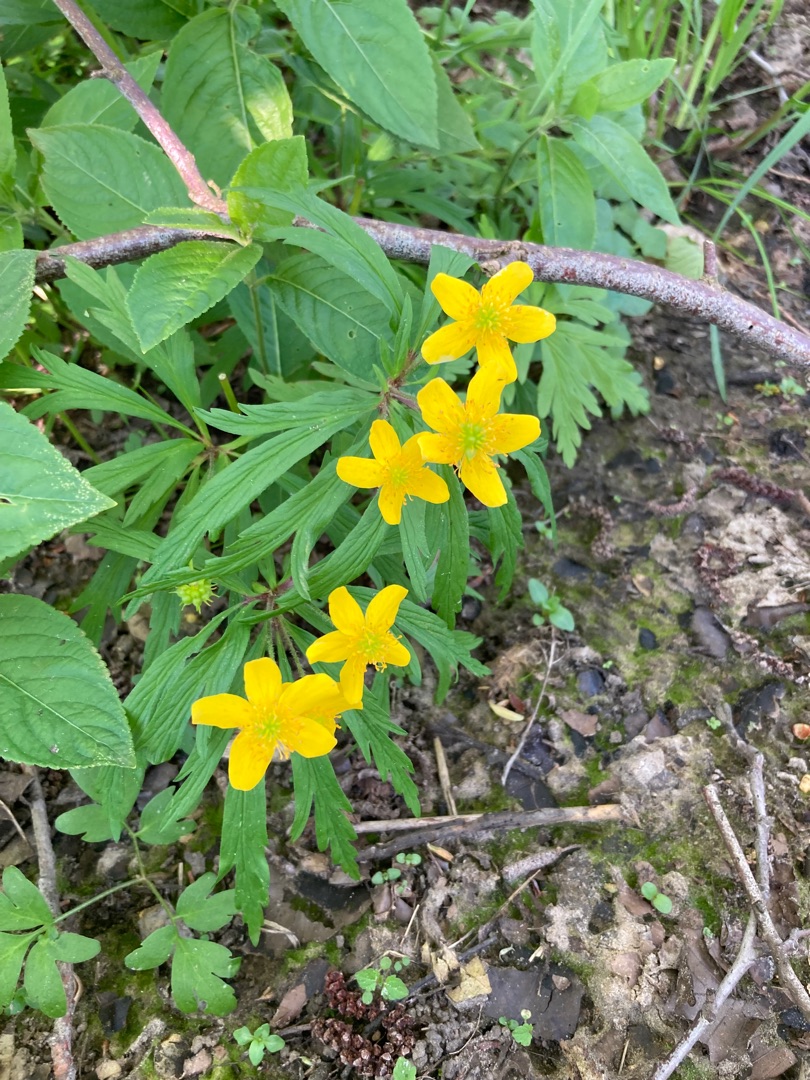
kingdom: Plantae
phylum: Tracheophyta
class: Magnoliopsida
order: Ranunculales
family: Ranunculaceae
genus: Anemone
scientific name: Anemone ranunculoides
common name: Gul anemone
